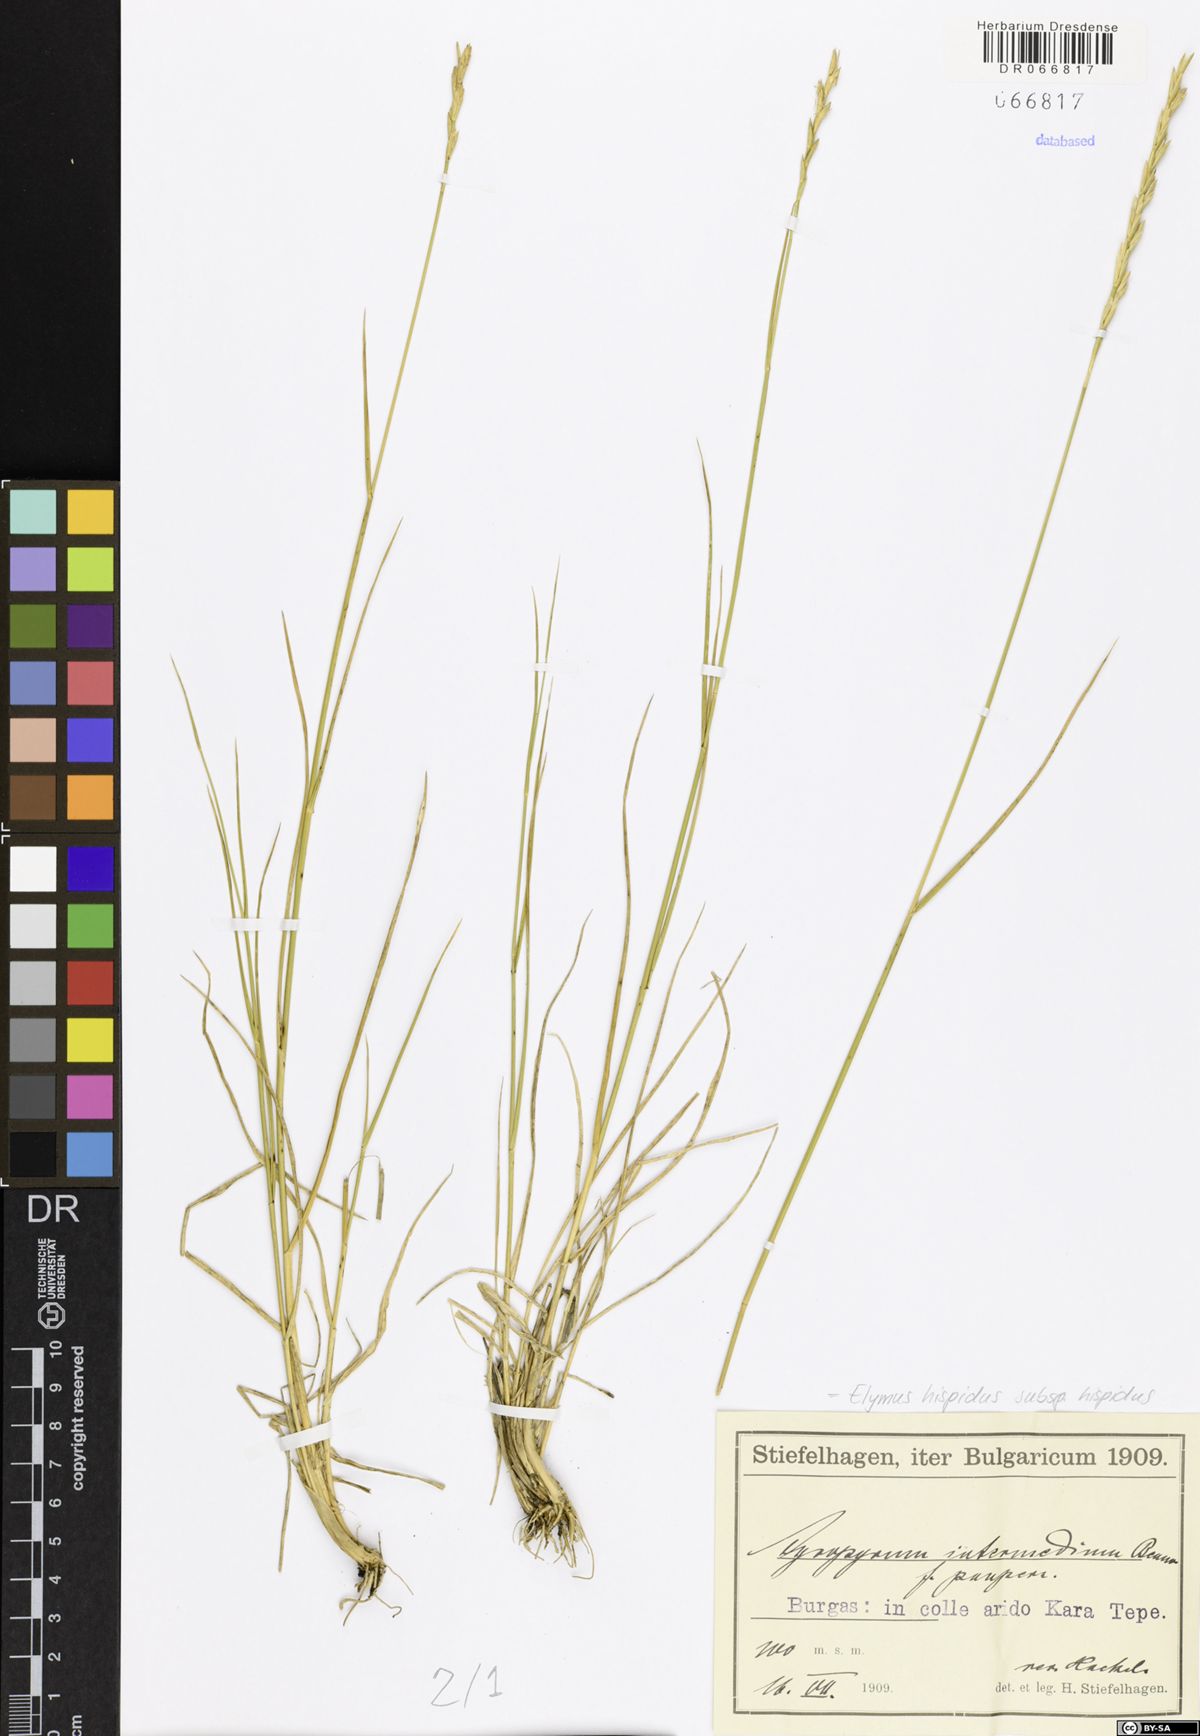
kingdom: Plantae
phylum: Tracheophyta
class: Liliopsida
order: Poales
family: Poaceae
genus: Thinopyrum
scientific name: Thinopyrum intermedium
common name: Intermediate wheatgrass
